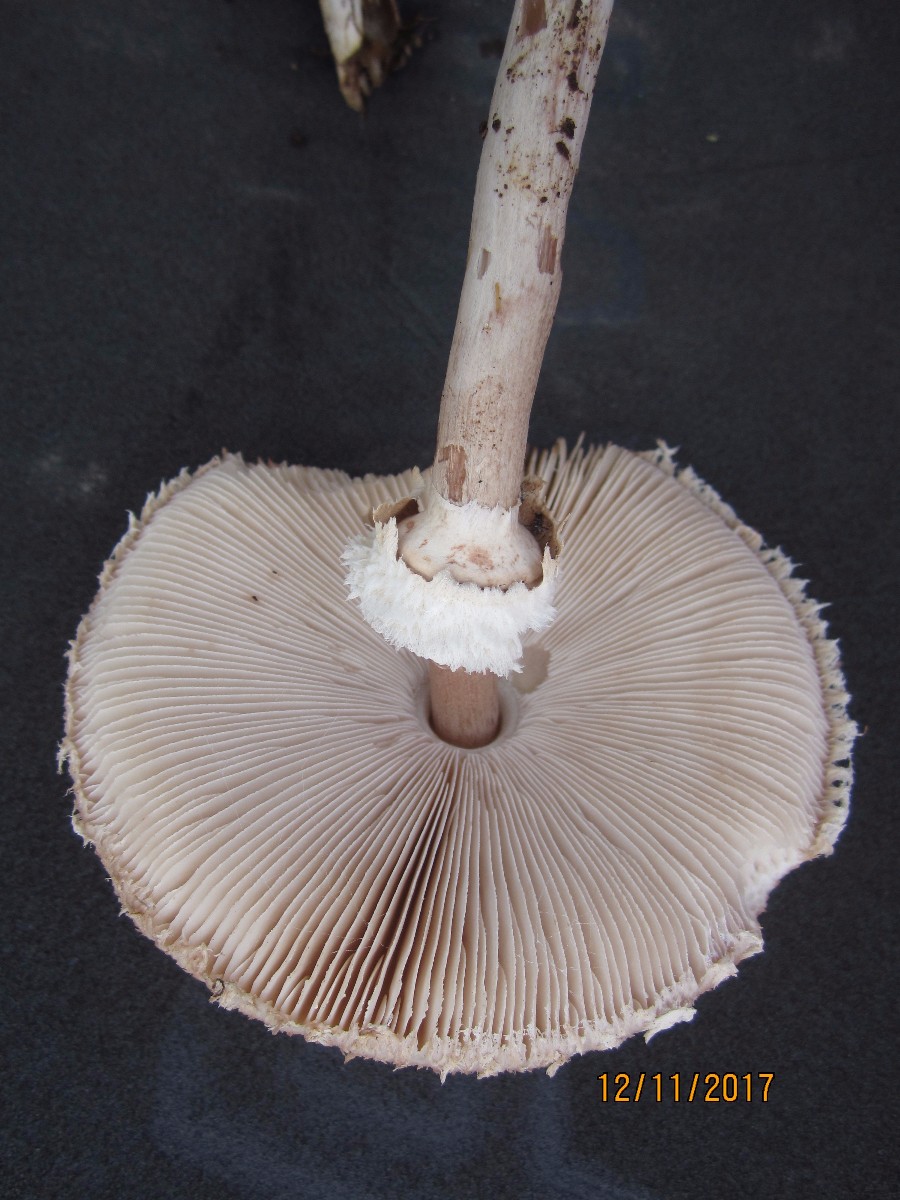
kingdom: Fungi
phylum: Basidiomycota
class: Agaricomycetes
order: Agaricales
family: Agaricaceae
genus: Macrolepiota
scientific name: Macrolepiota mastoidea
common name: puklet kæmpeparasolhat
